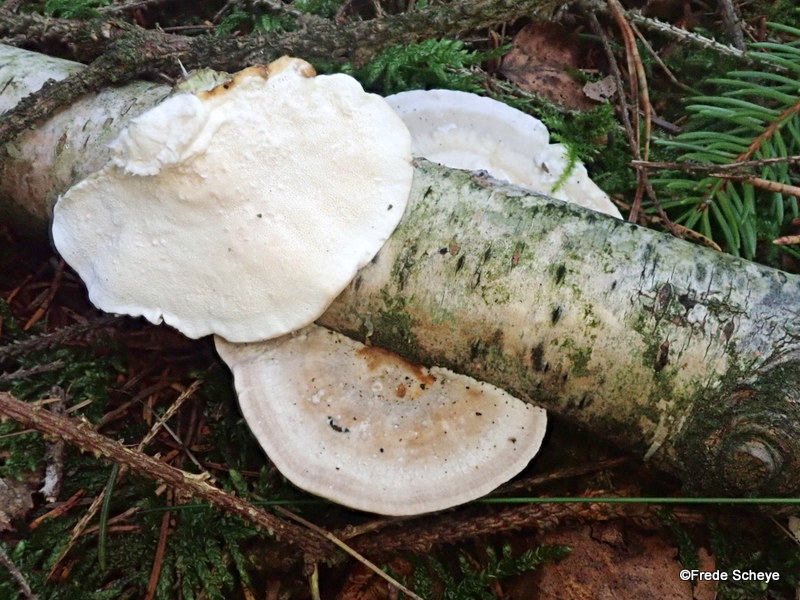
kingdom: Fungi
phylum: Basidiomycota
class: Agaricomycetes
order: Polyporales
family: Fomitopsidaceae
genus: Fomitopsis
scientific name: Fomitopsis betulina
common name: birkeporesvamp
